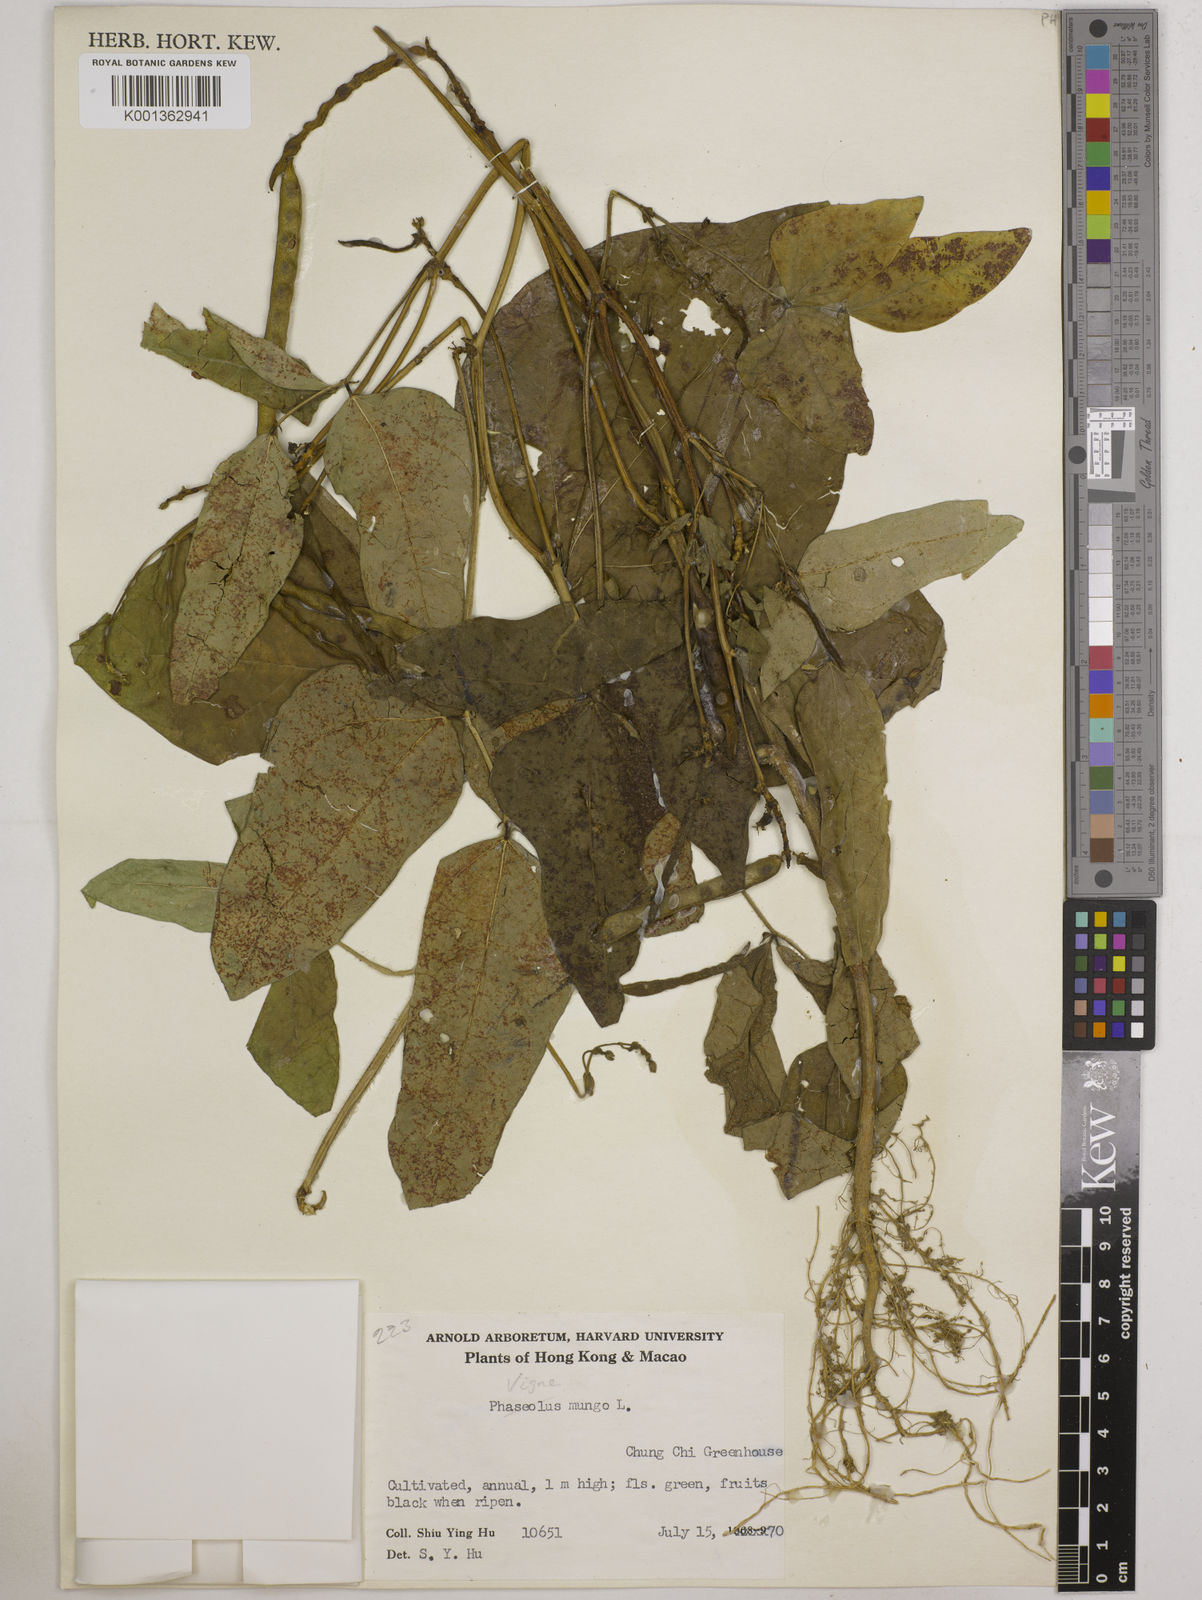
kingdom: Plantae
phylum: Tracheophyta
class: Magnoliopsida
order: Fabales
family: Fabaceae
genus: Vigna
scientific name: Vigna mungo
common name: Black gram
